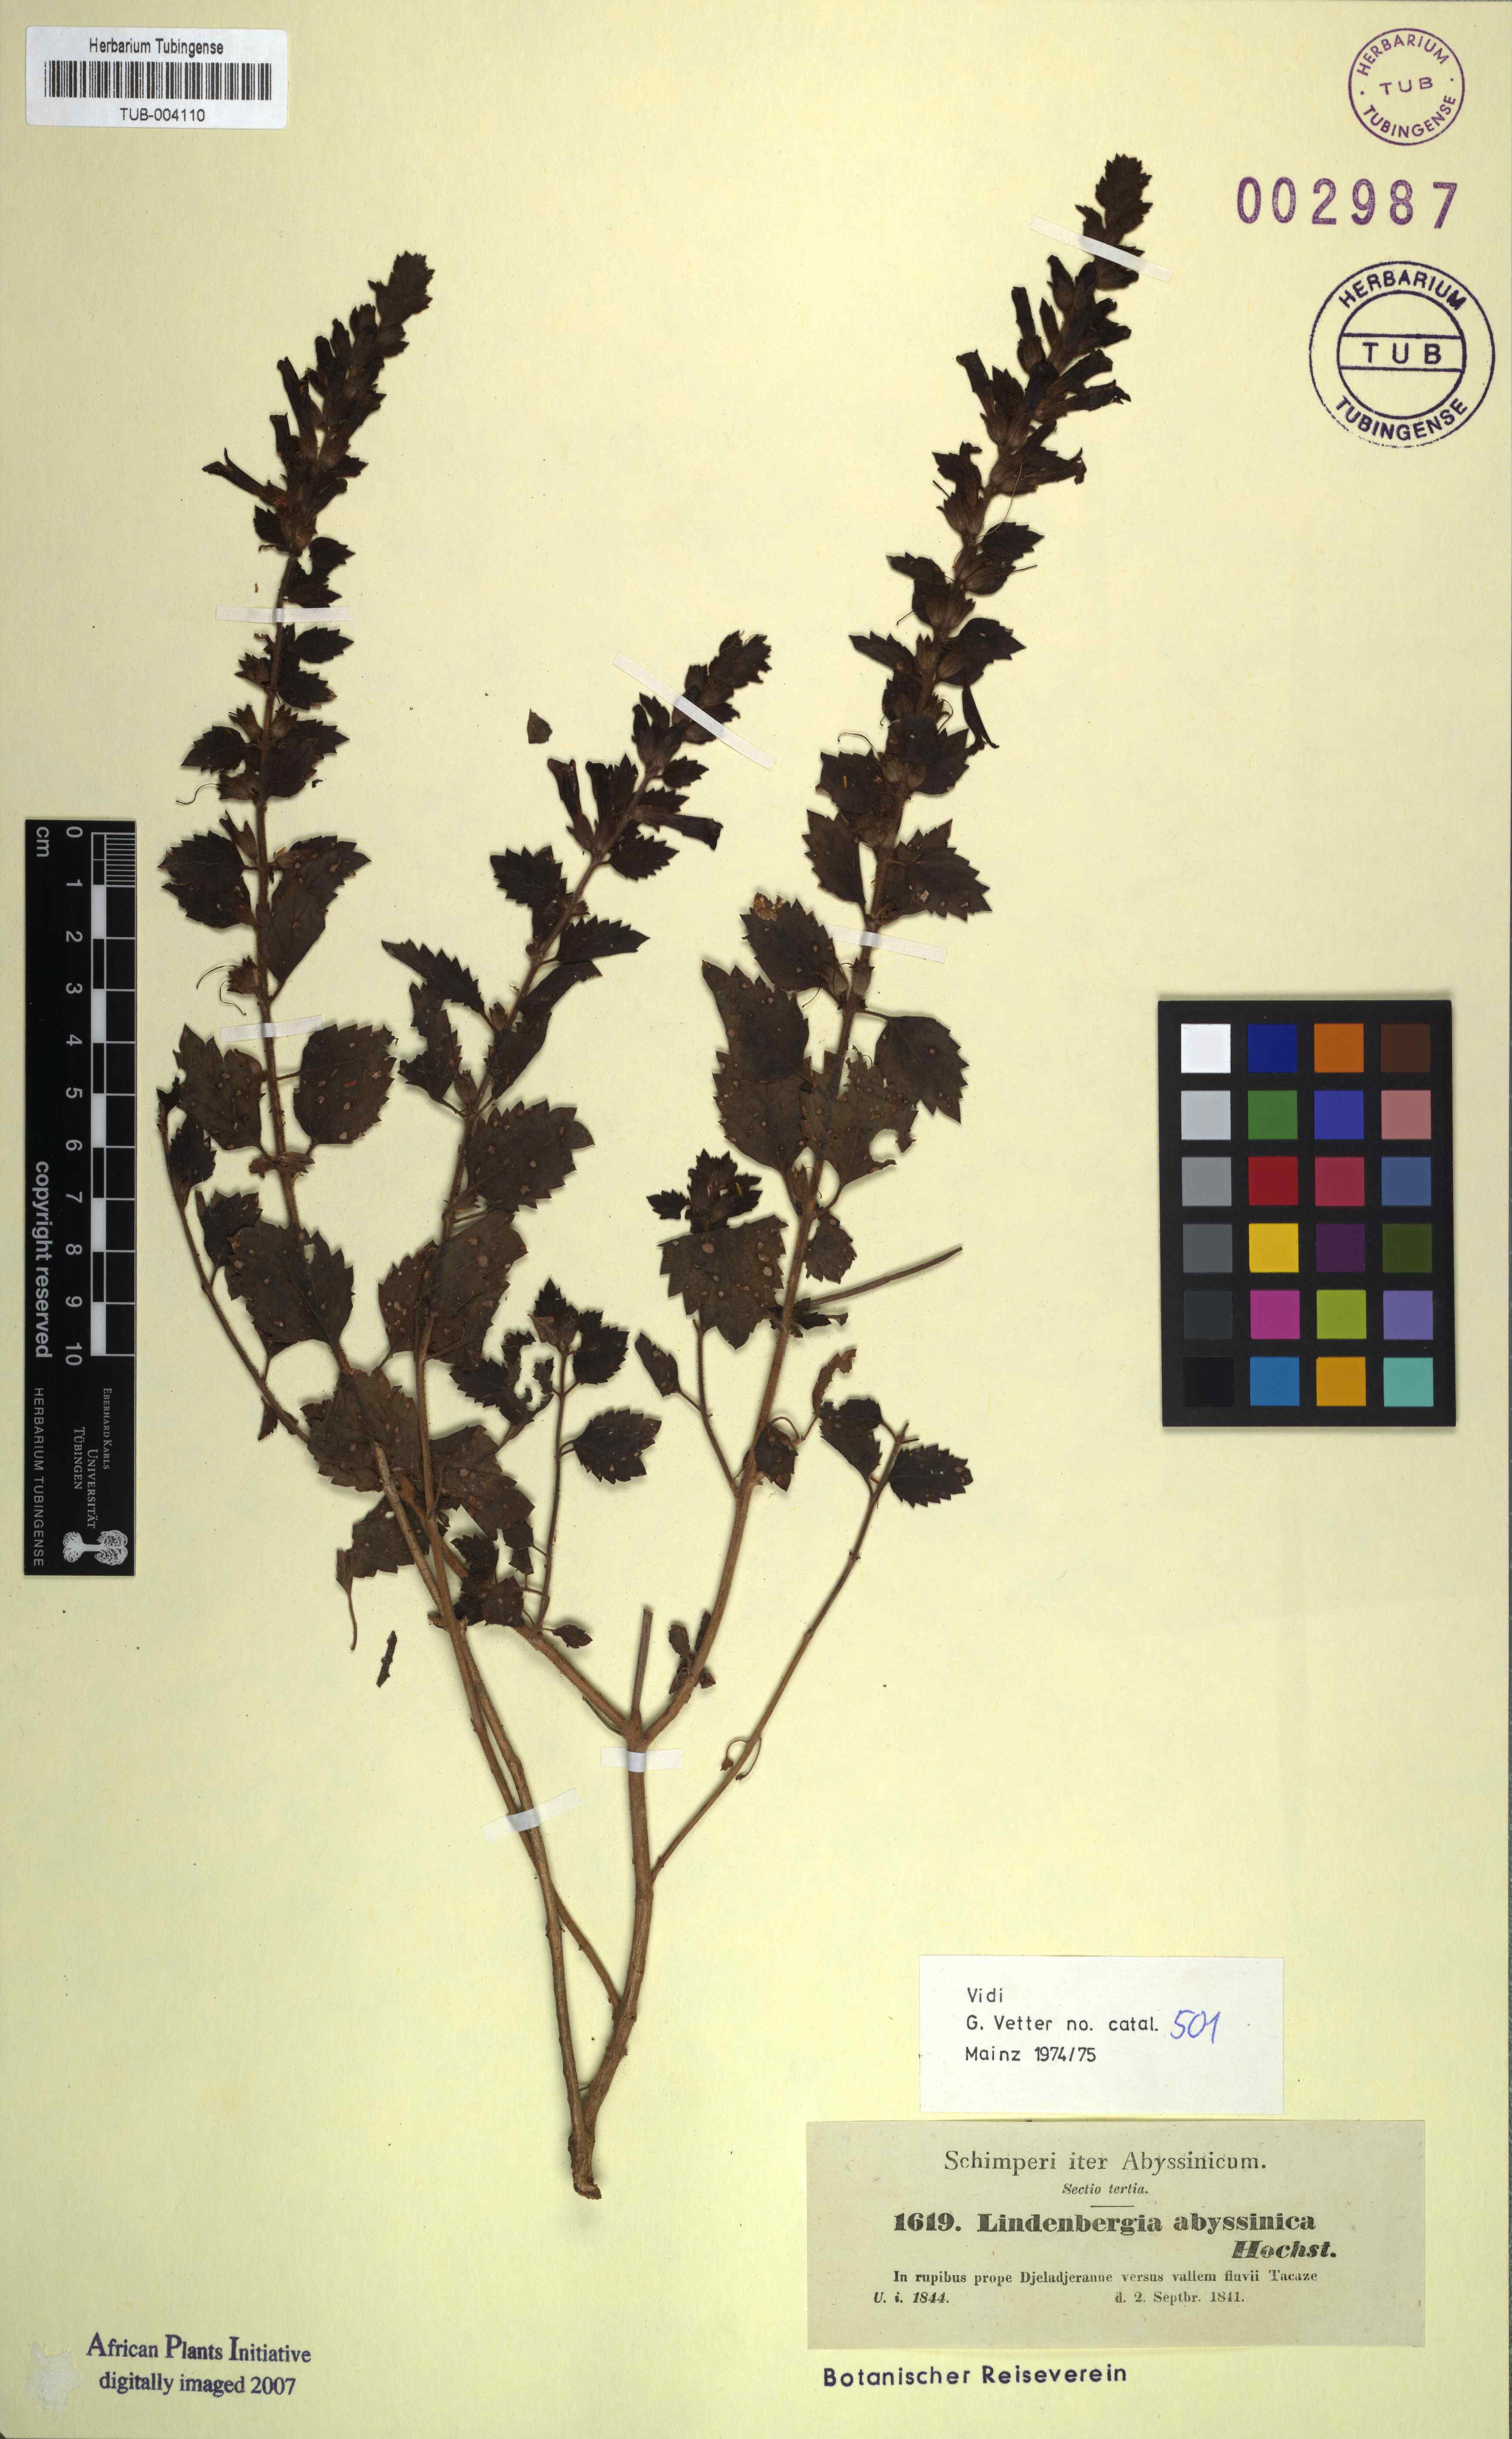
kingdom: Plantae
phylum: Tracheophyta
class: Magnoliopsida
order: Lamiales
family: Orobanchaceae
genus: Lindenbergia
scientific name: Lindenbergia indica
